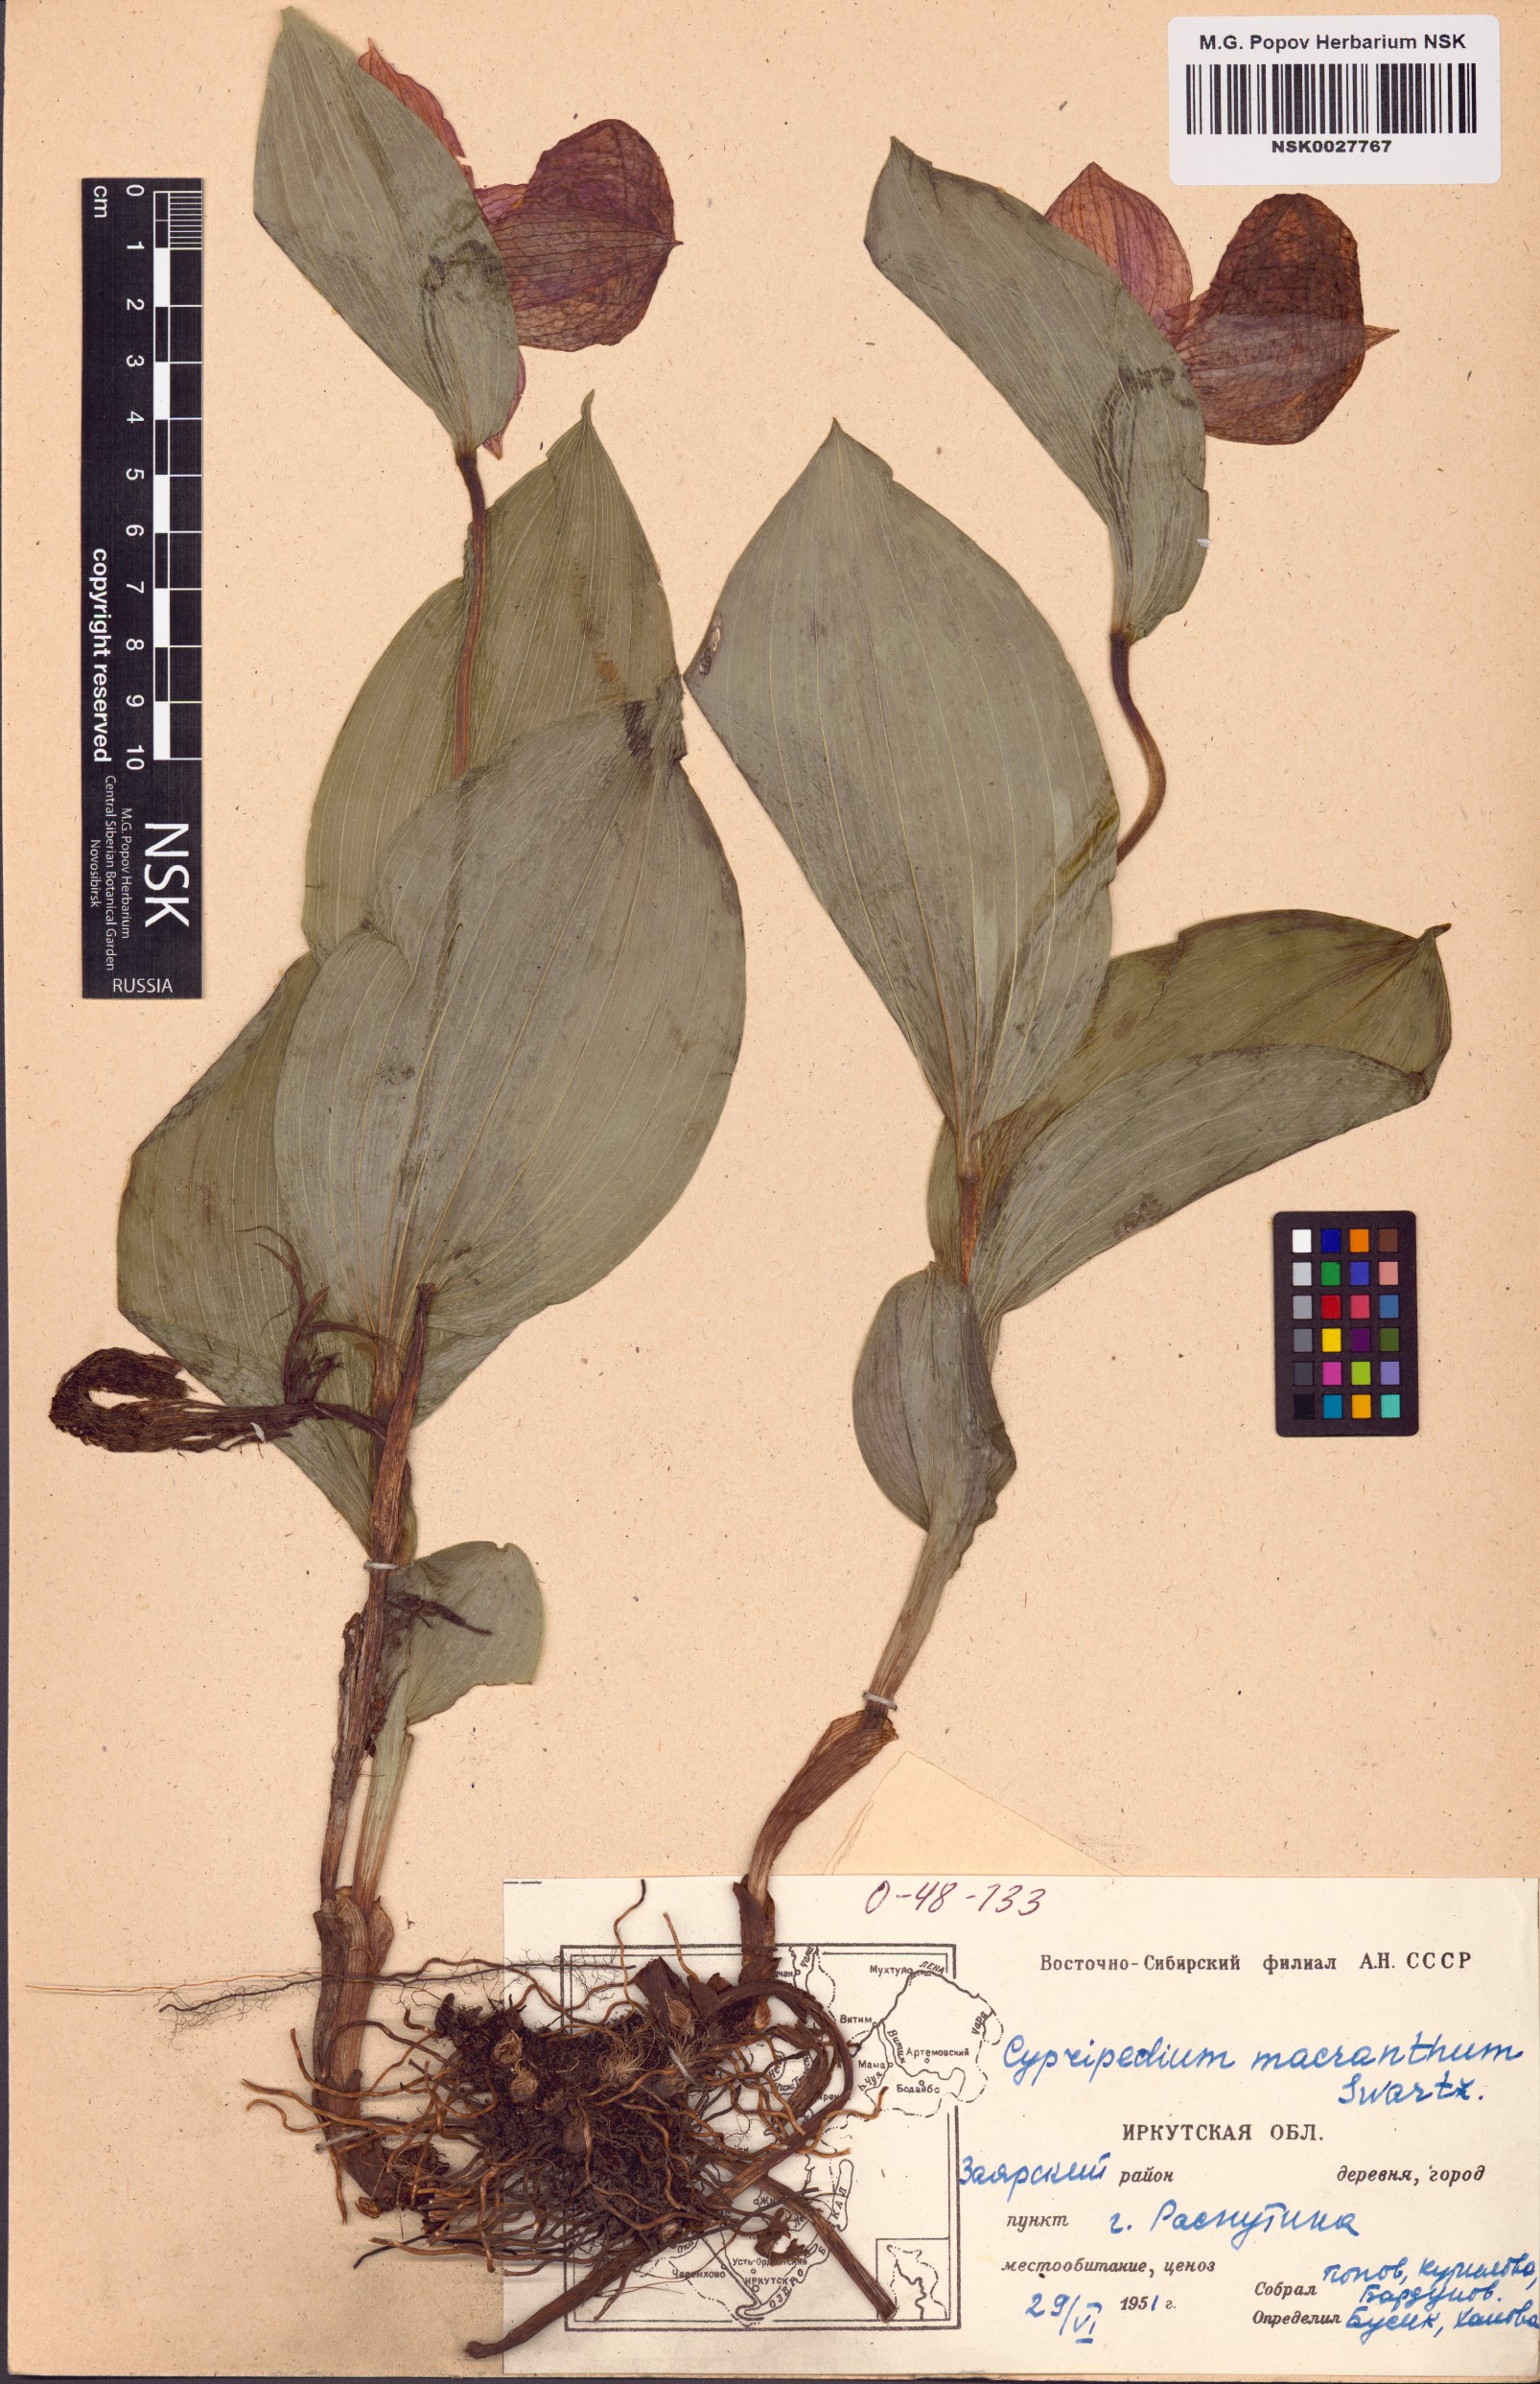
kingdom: Plantae
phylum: Tracheophyta
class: Liliopsida
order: Asparagales
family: Orchidaceae
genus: Cypripedium
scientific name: Cypripedium macranthos
